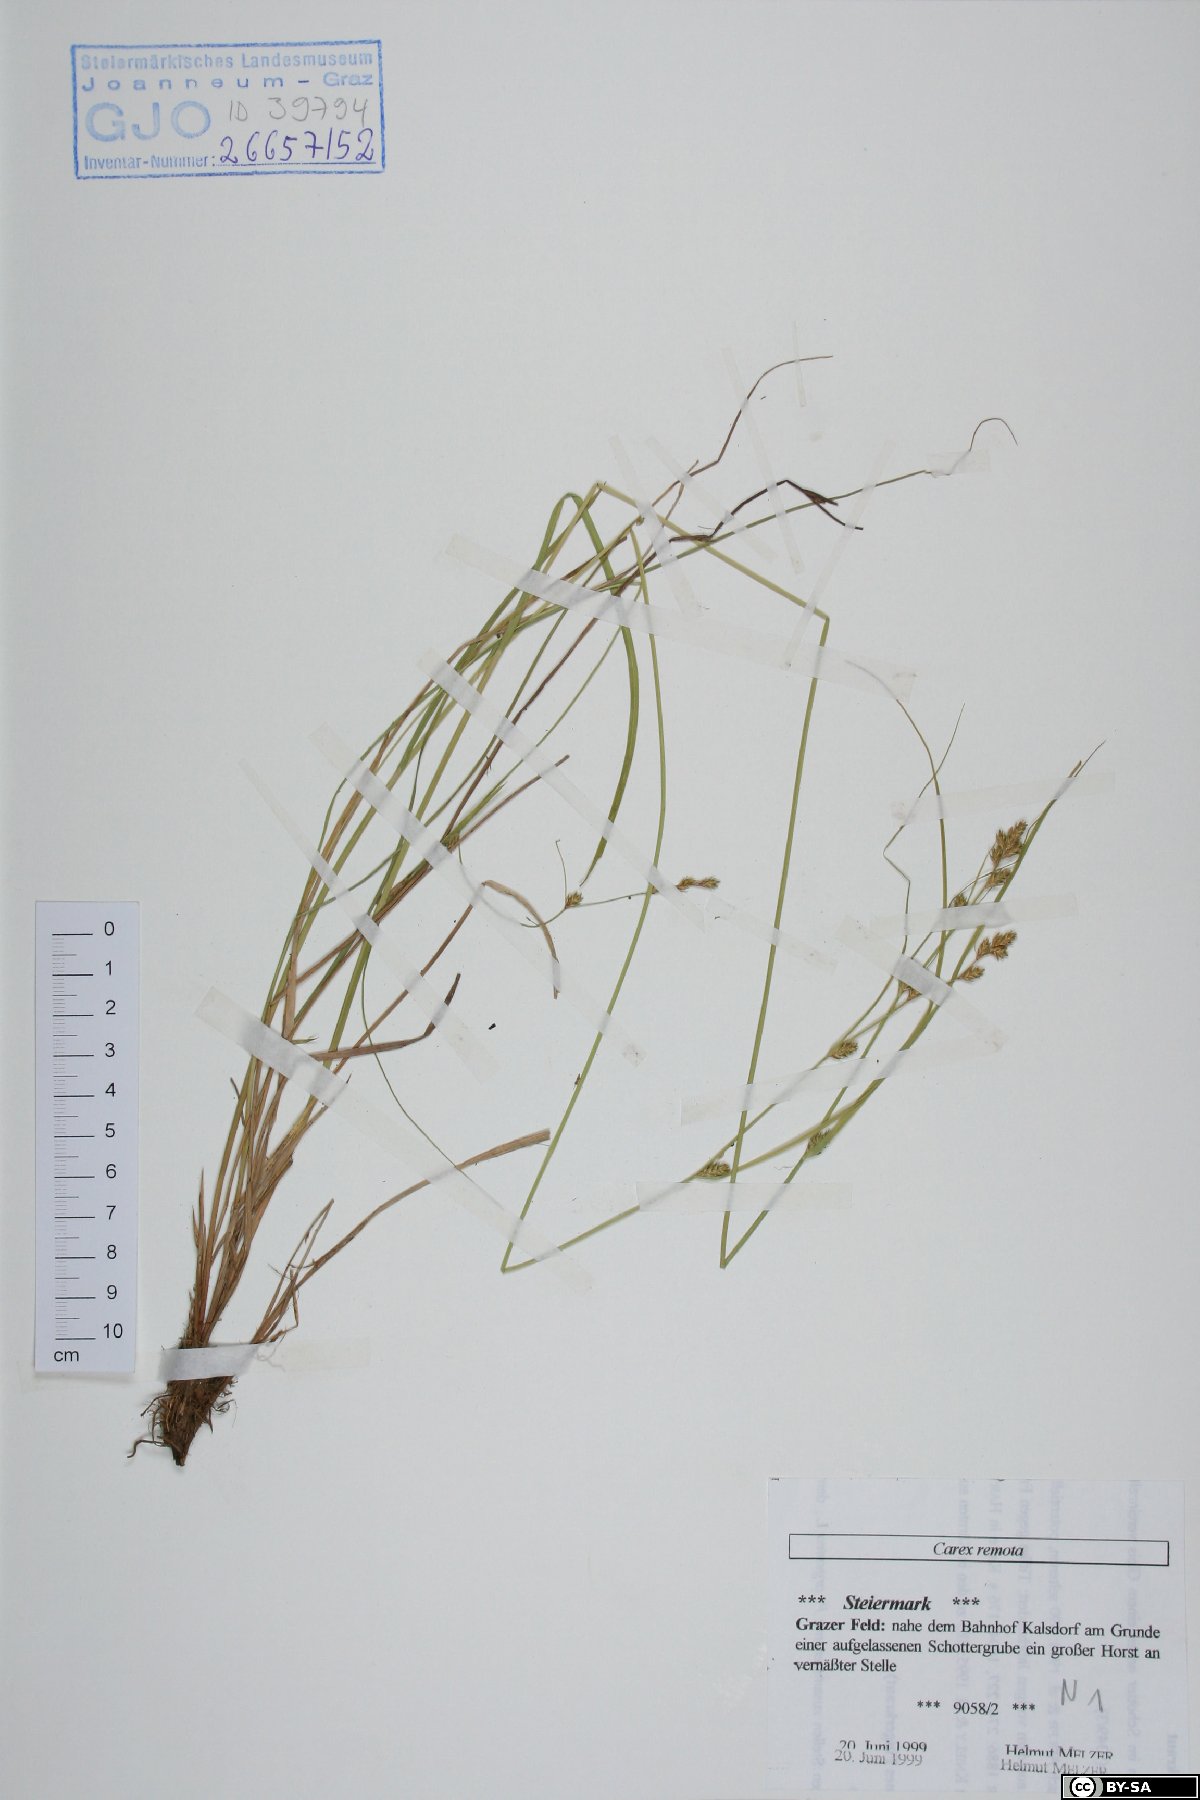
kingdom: Plantae
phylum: Tracheophyta
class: Liliopsida
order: Poales
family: Cyperaceae
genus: Carex
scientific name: Carex remota
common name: Remote sedge
